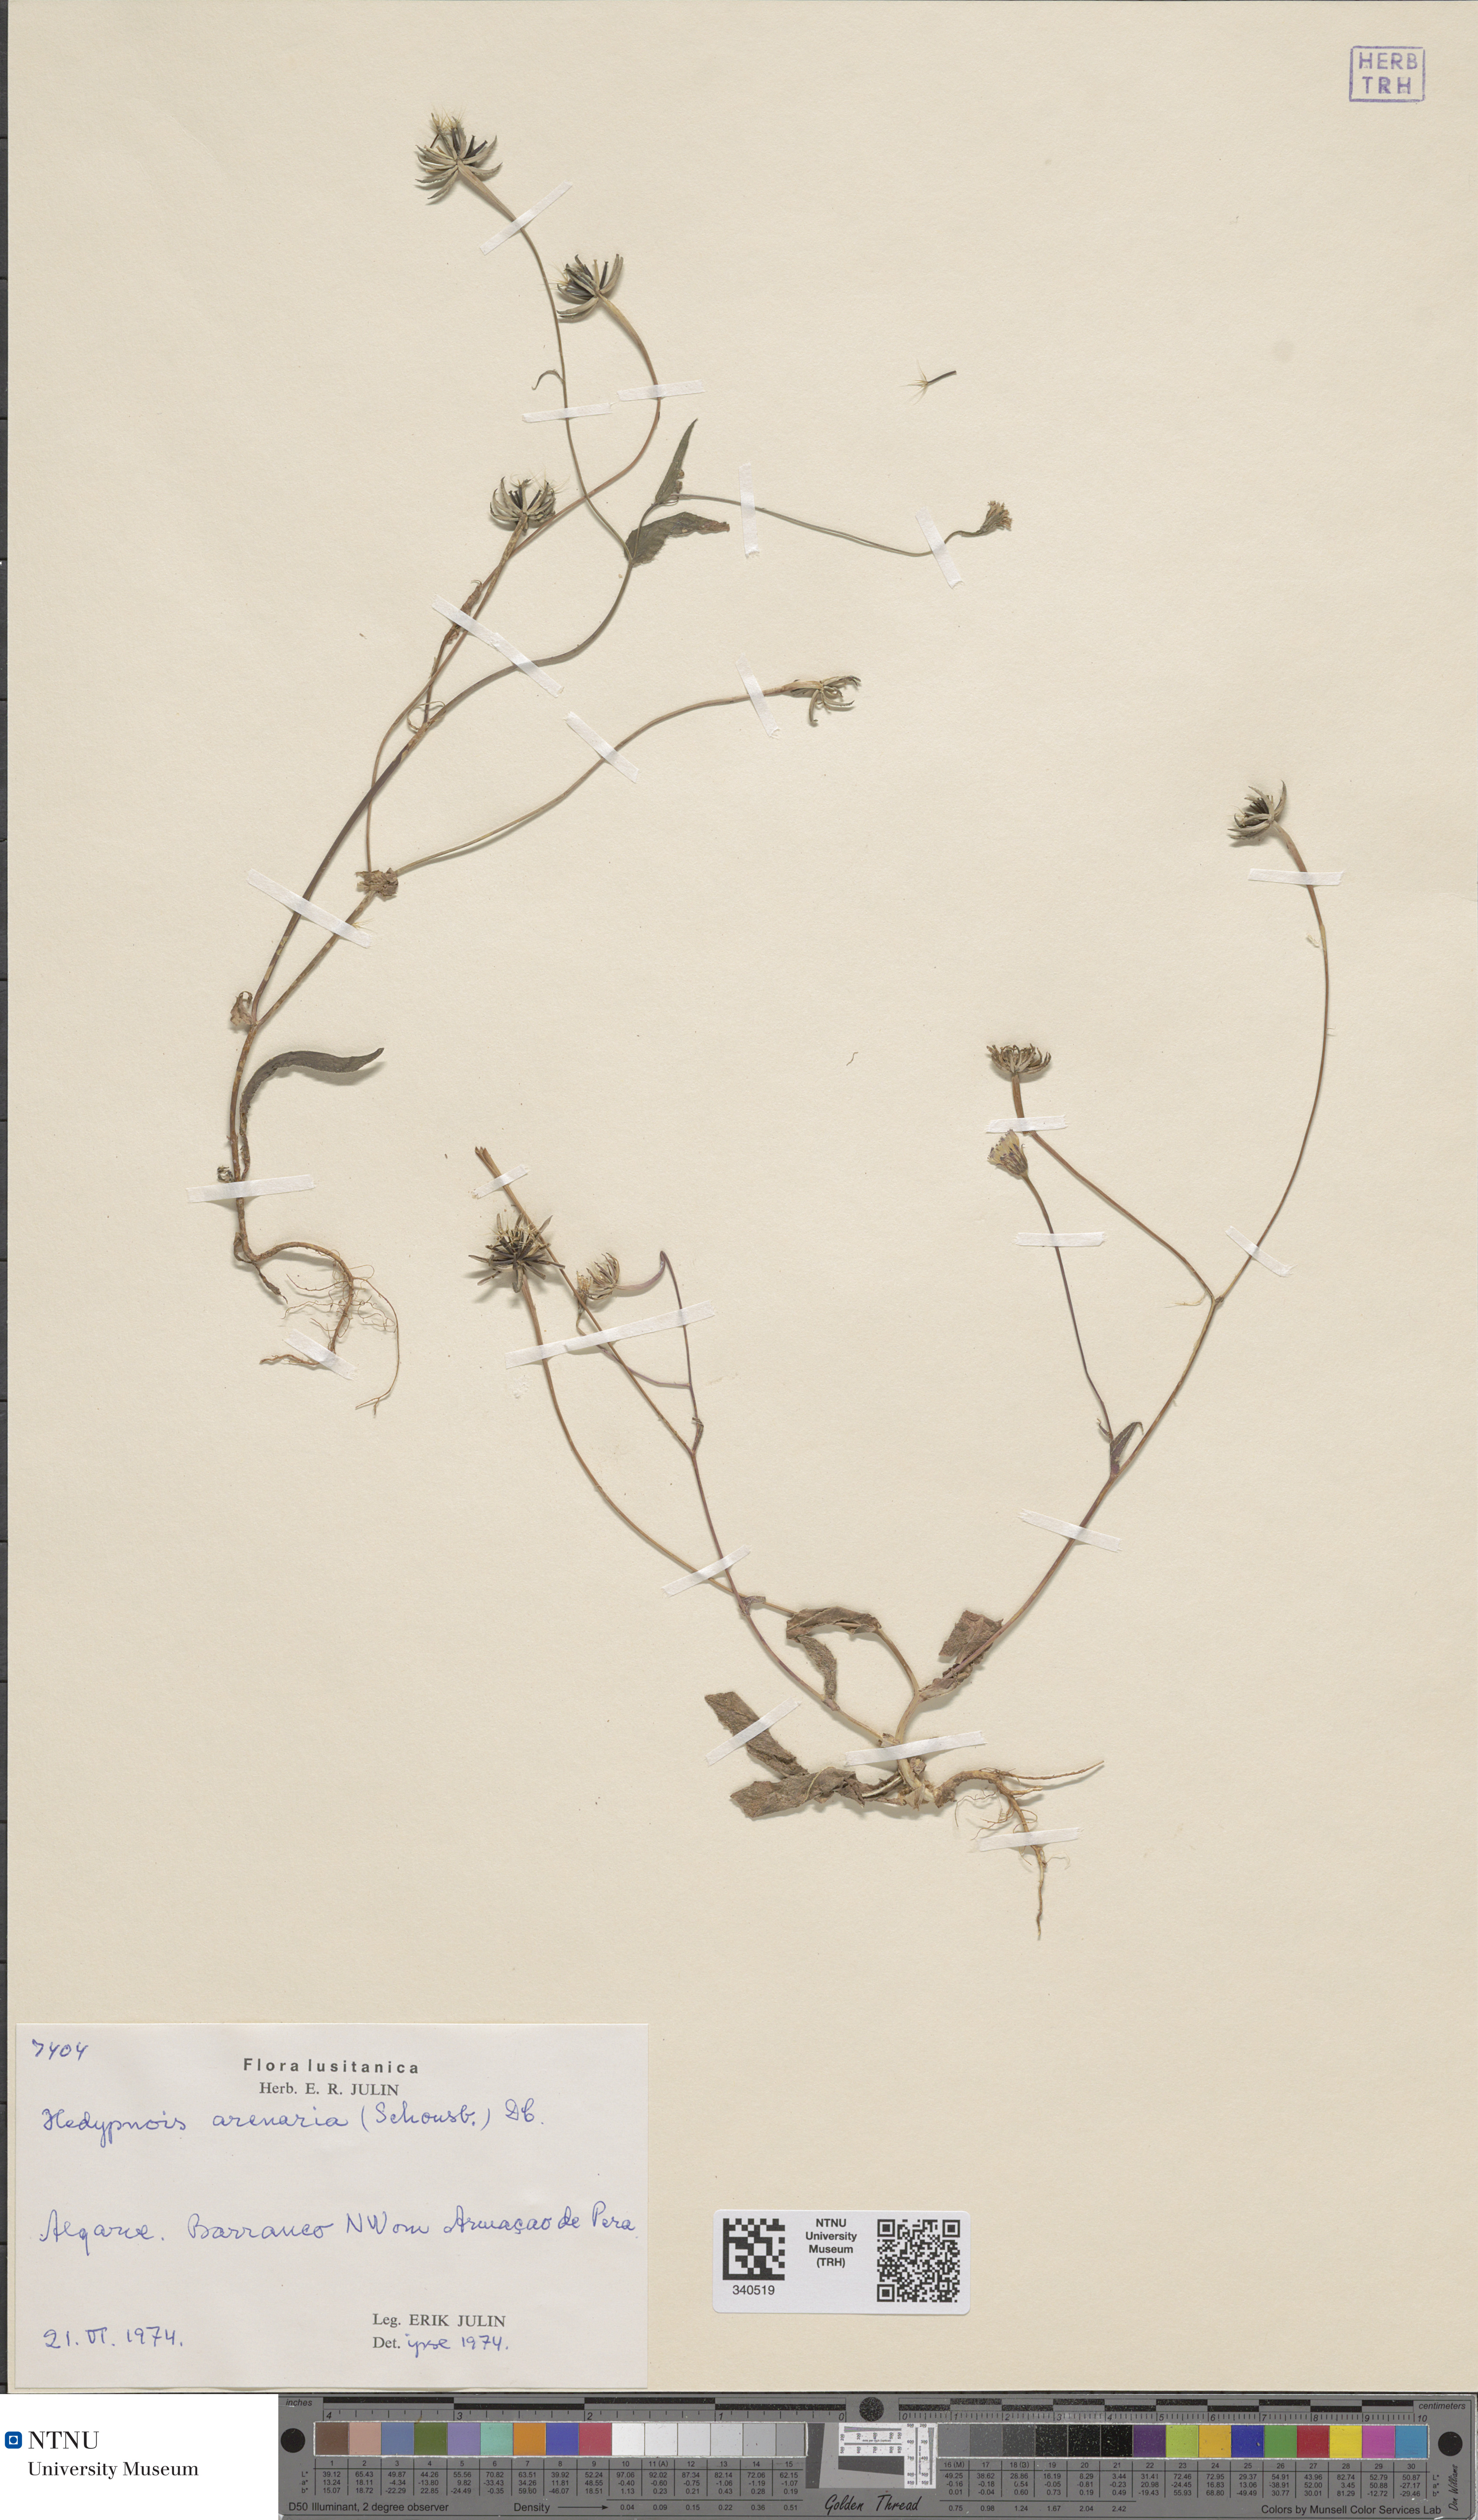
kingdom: Plantae
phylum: Tracheophyta
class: Magnoliopsida
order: Asterales
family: Asteraceae
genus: Hedypnois
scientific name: Hedypnois arenaria
